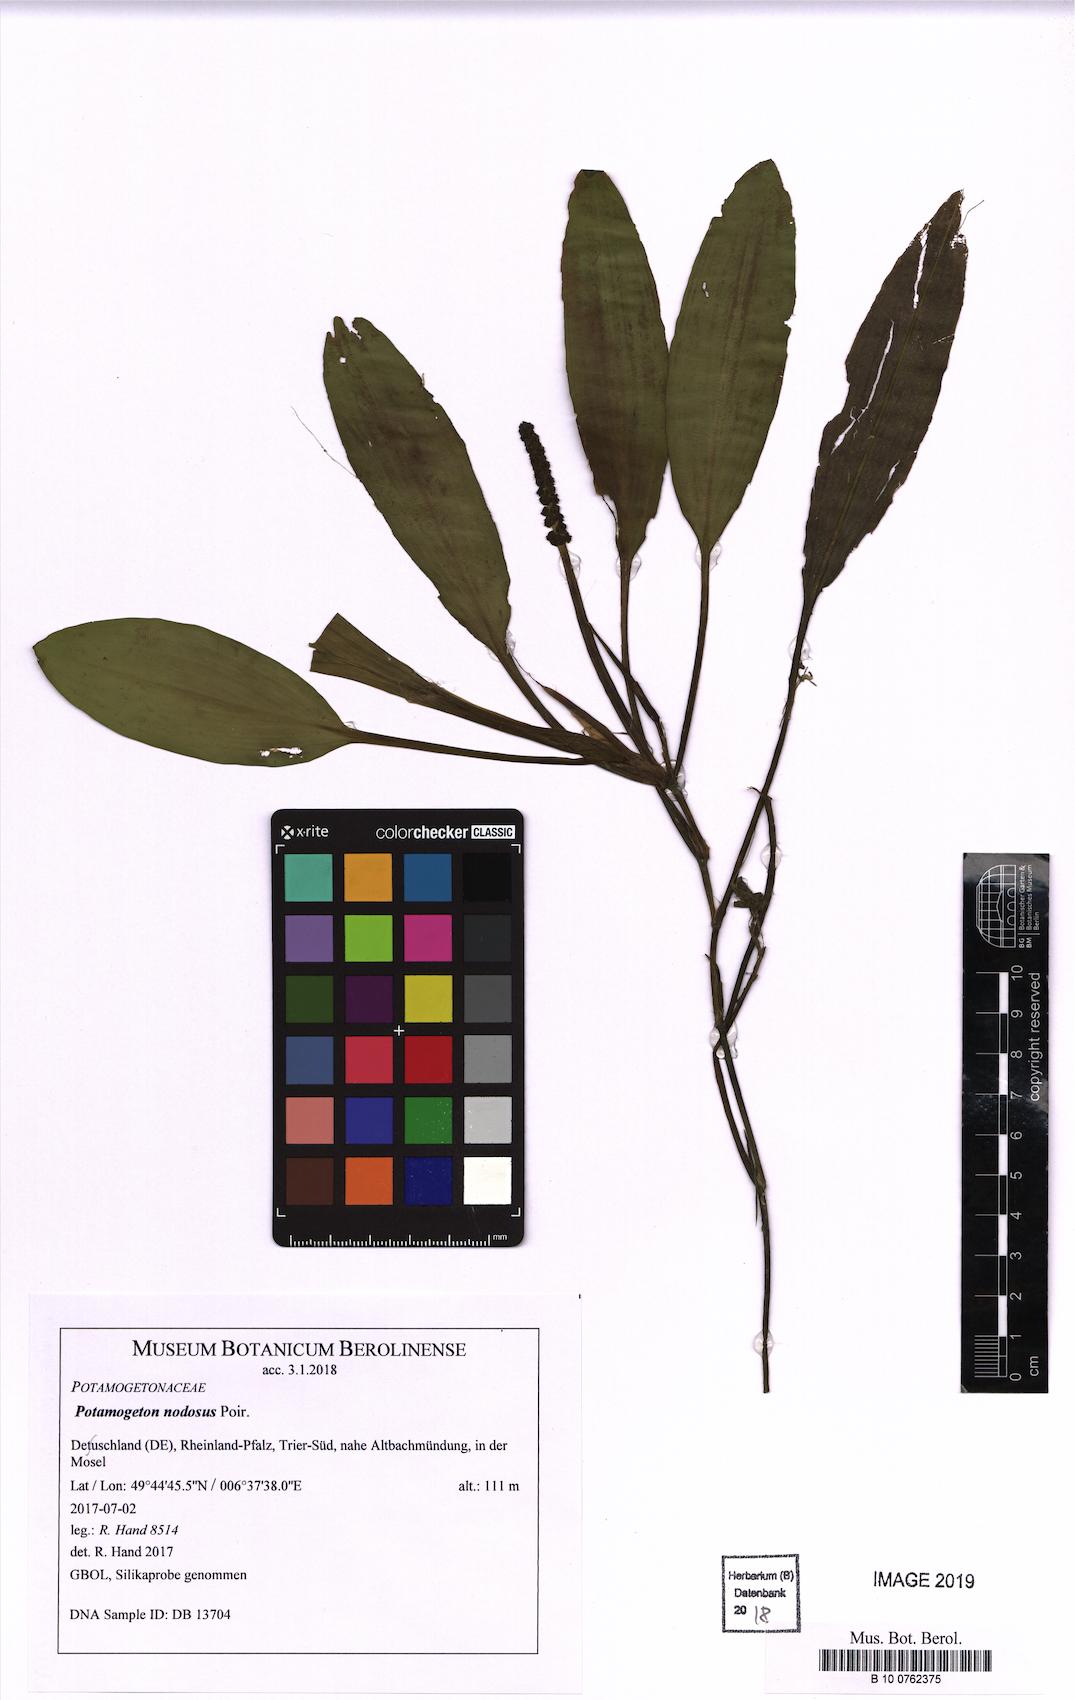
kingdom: Plantae
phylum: Tracheophyta
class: Liliopsida
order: Alismatales
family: Potamogetonaceae
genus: Potamogeton
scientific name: Potamogeton nodosus
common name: Loddon pondweed
